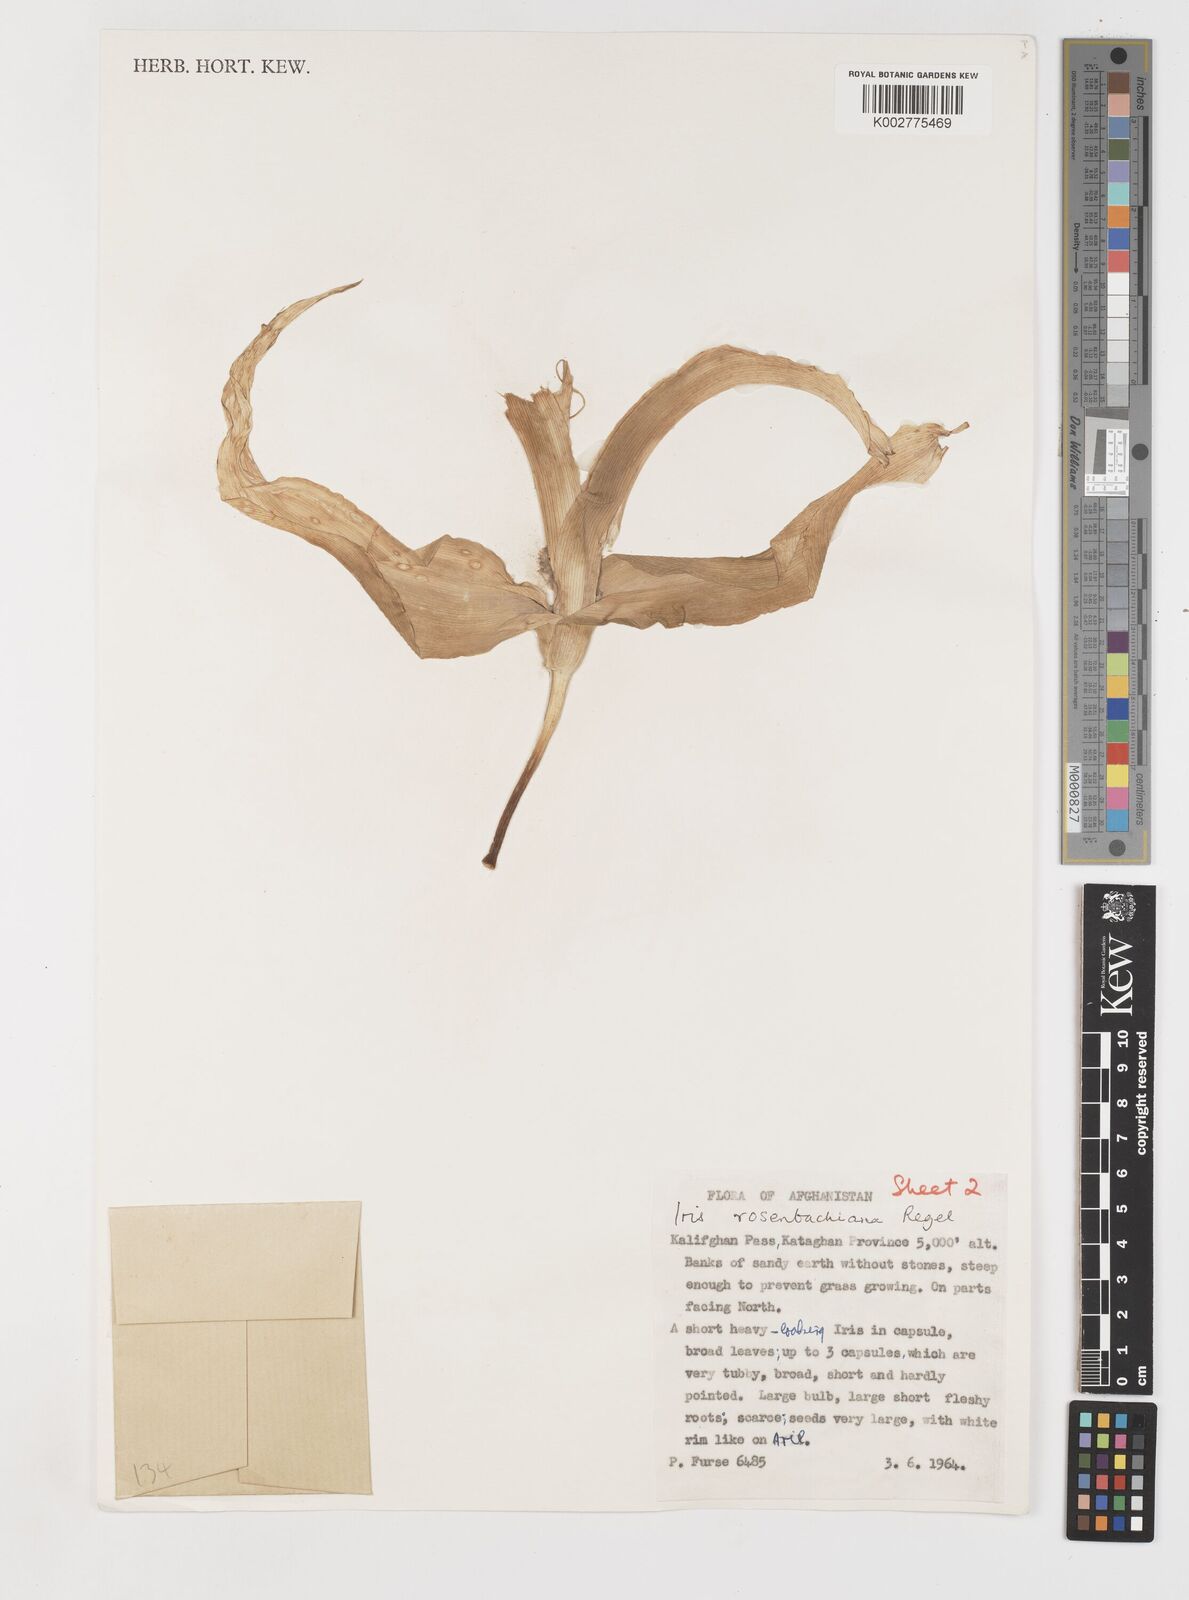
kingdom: Plantae
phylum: Tracheophyta
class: Liliopsida
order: Asparagales
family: Iridaceae
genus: Iris
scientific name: Iris rosenbachiana
